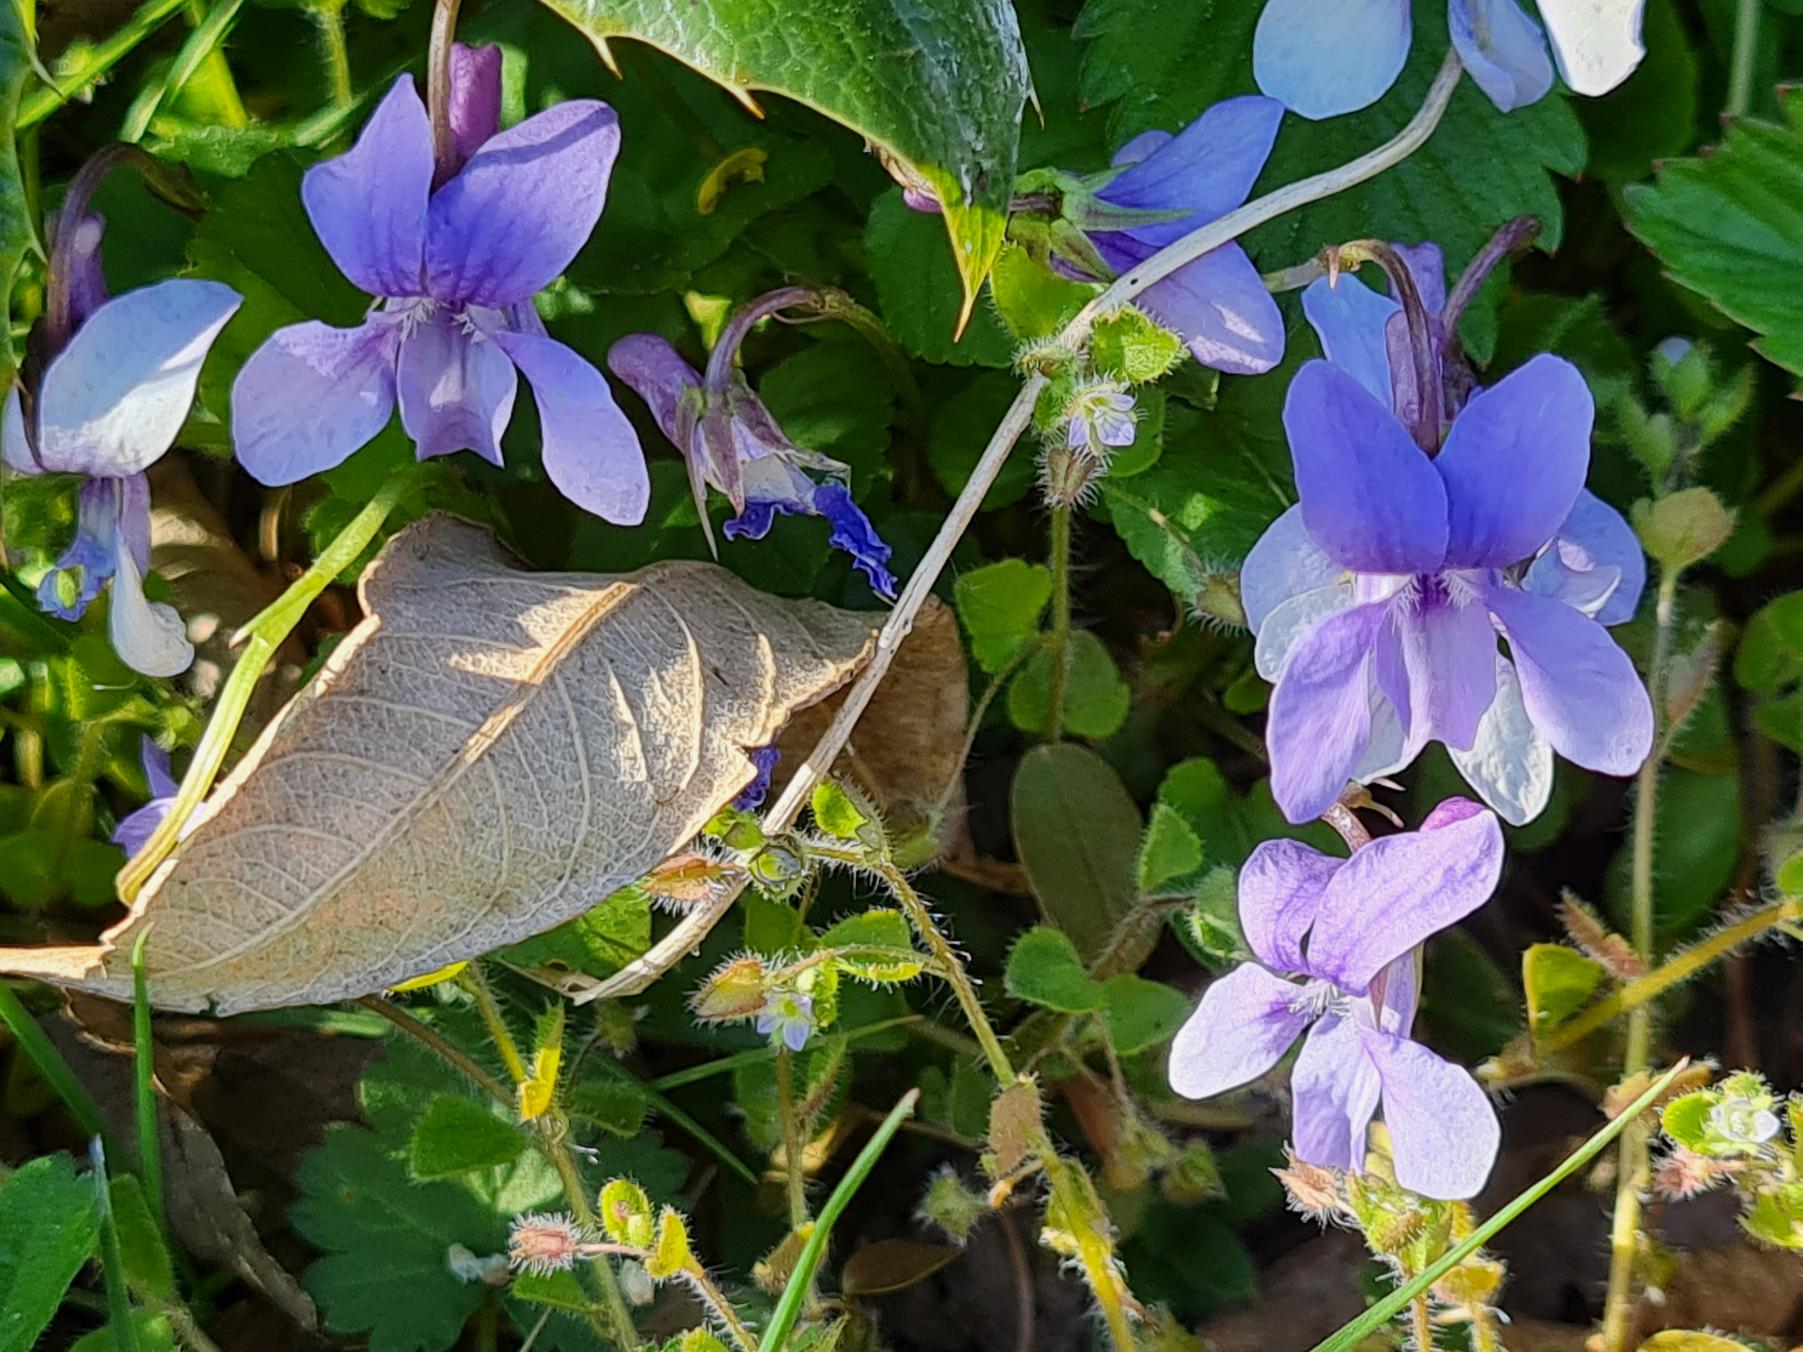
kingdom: Plantae
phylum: Tracheophyta
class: Magnoliopsida
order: Malpighiales
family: Violaceae
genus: Viola
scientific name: Viola reichenbachiana
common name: Skov-viol
